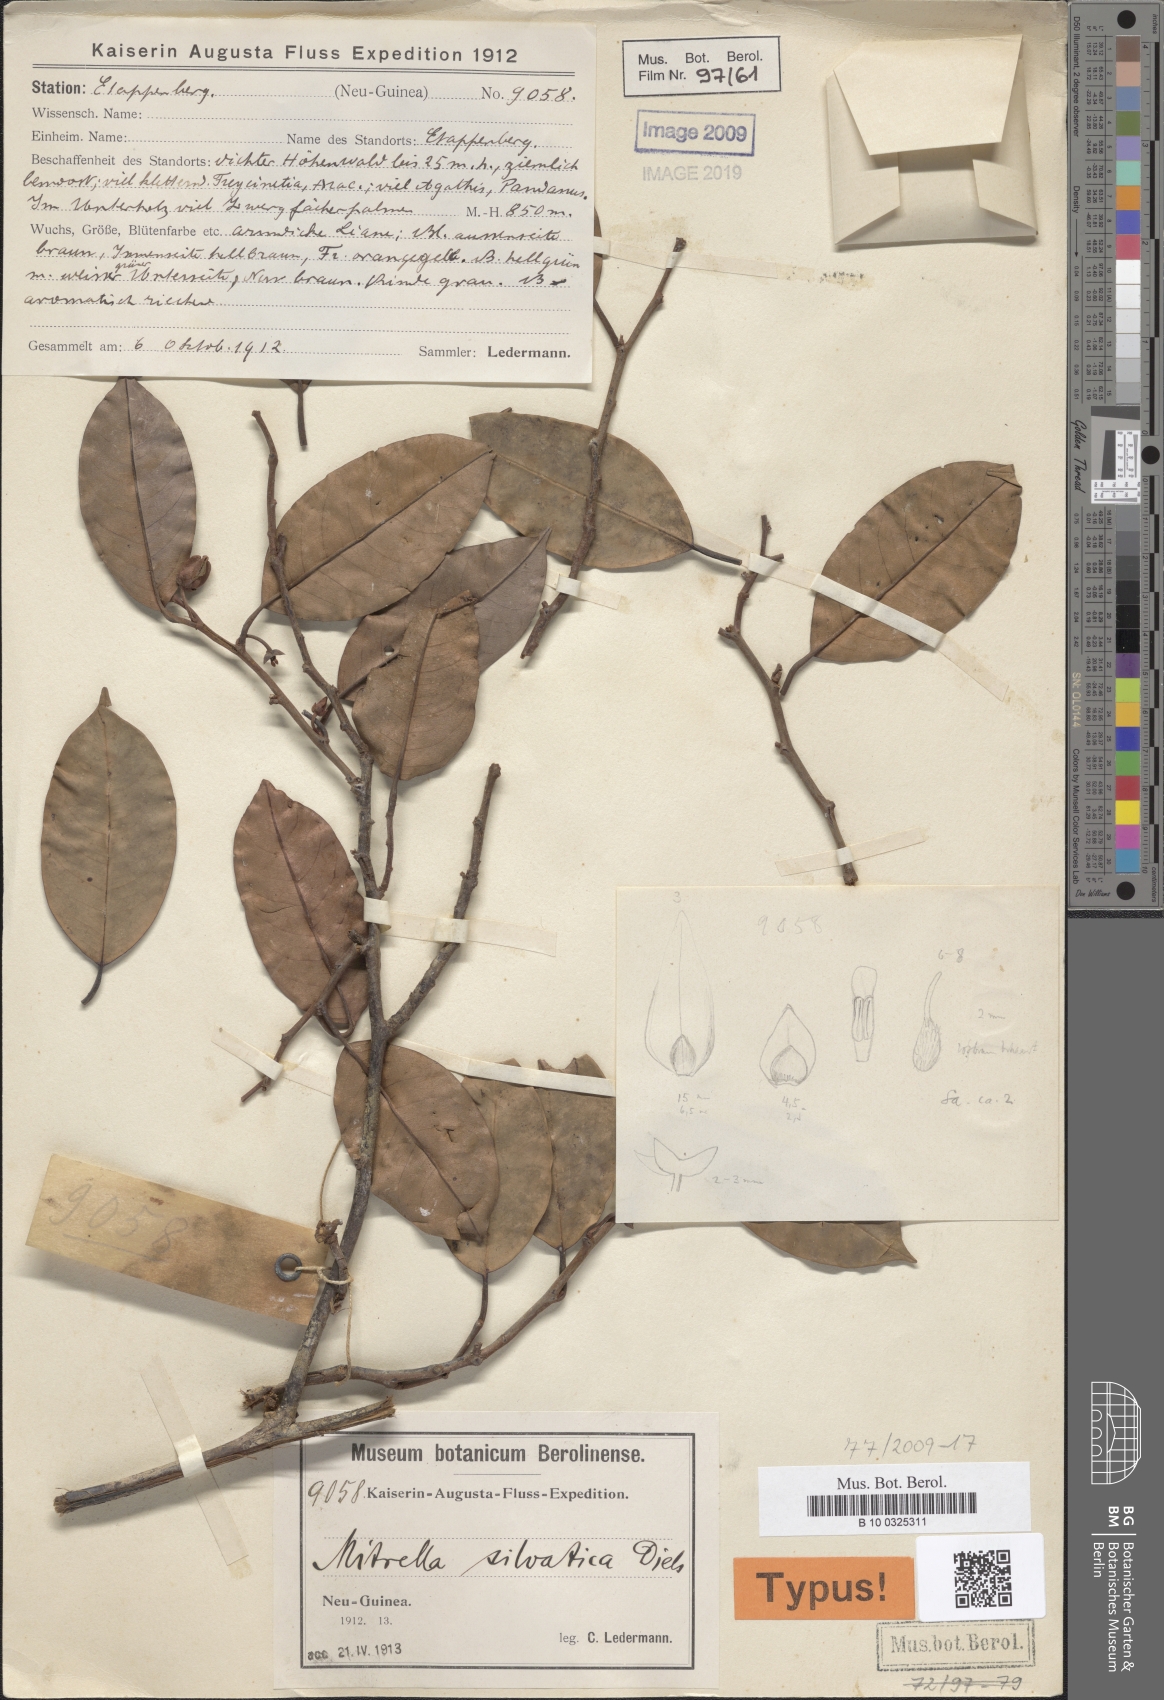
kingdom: Plantae
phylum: Tracheophyta
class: Magnoliopsida
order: Magnoliales
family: Annonaceae
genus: Mitrella
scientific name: Mitrella silvatica
